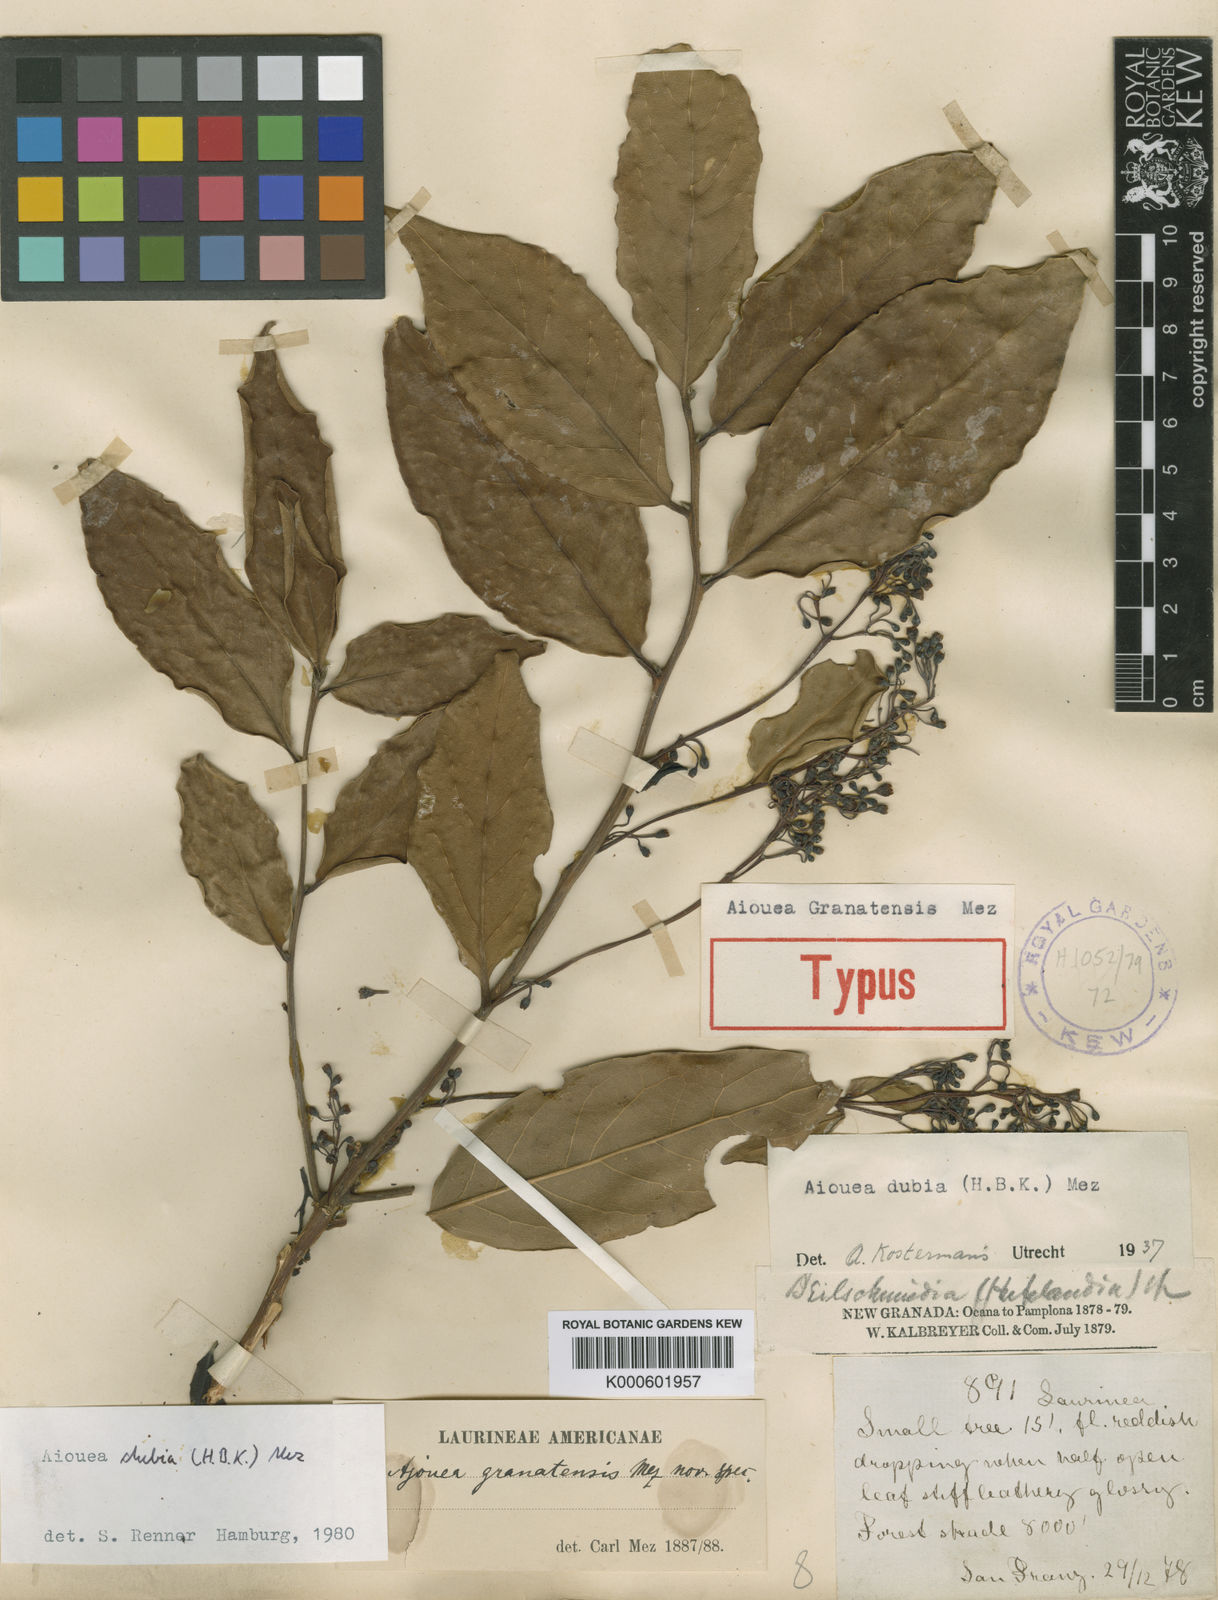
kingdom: Plantae
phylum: Tracheophyta
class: Magnoliopsida
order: Laurales
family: Lauraceae
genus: Aiouea
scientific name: Aiouea dubia
